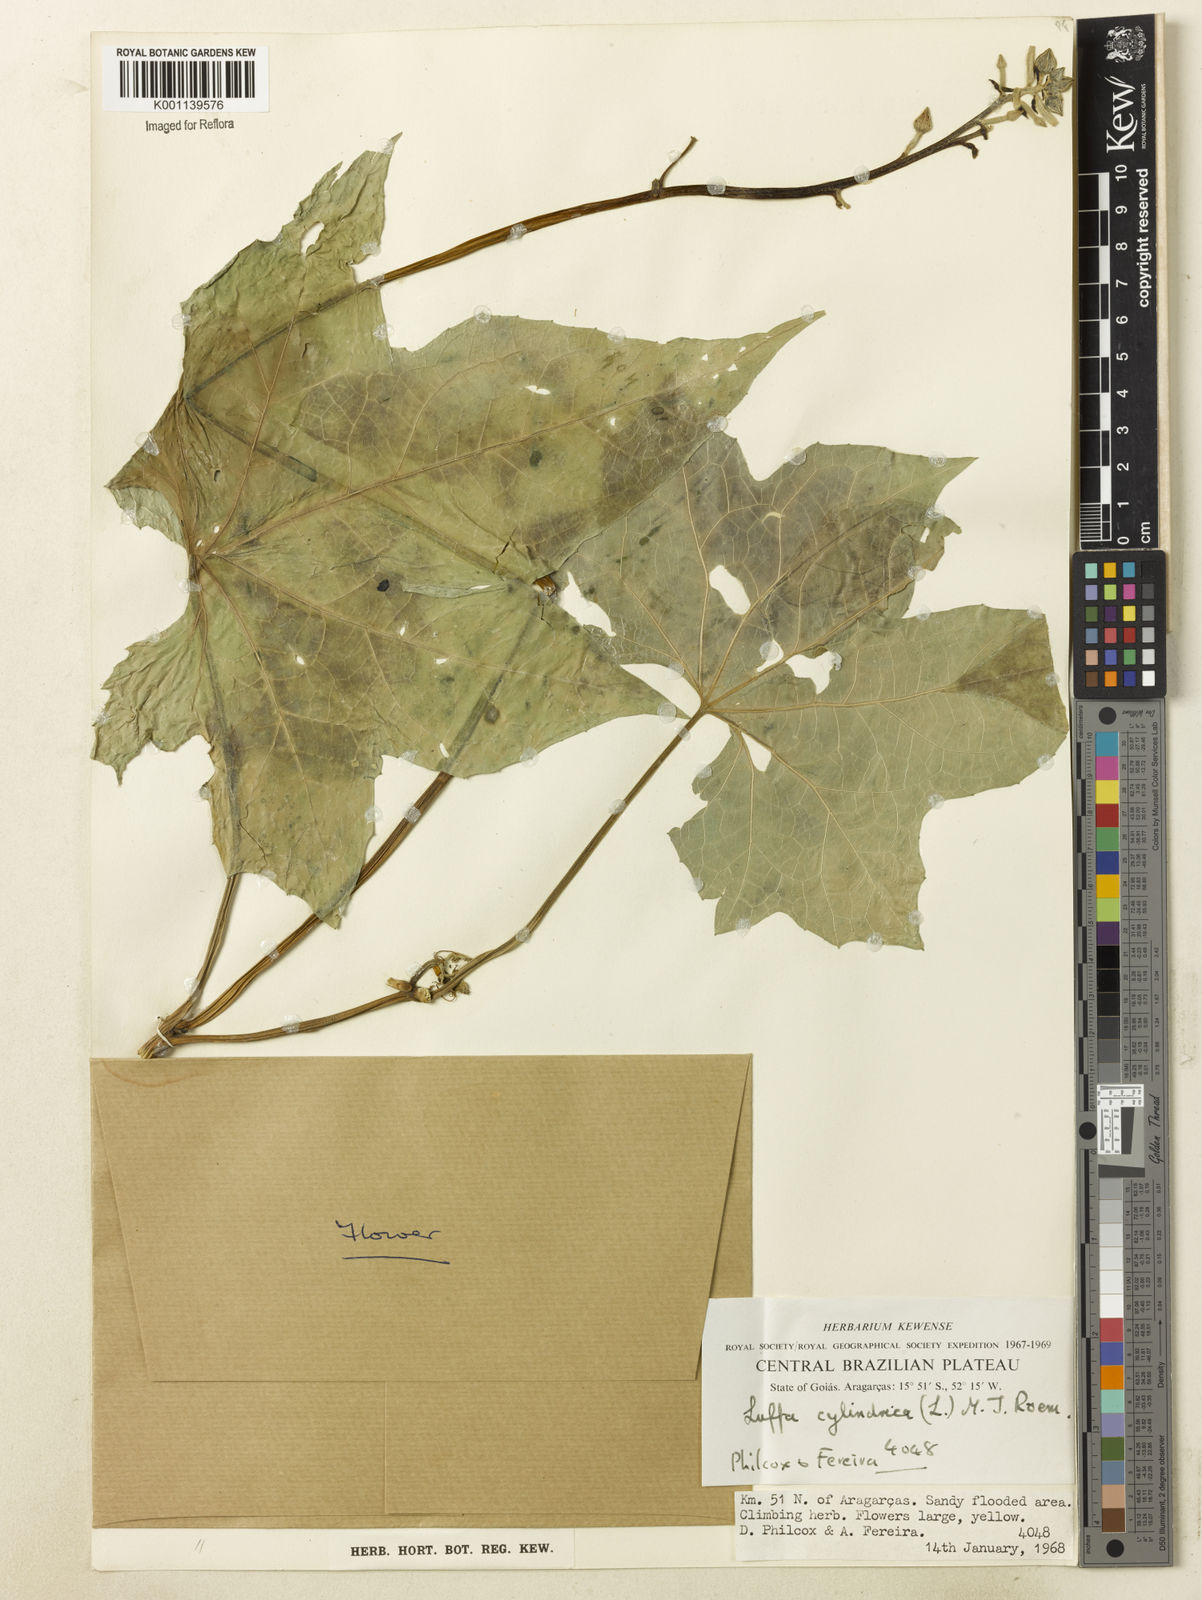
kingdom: Plantae
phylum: Tracheophyta
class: Magnoliopsida
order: Cucurbitales
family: Cucurbitaceae
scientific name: Cucurbitaceae
